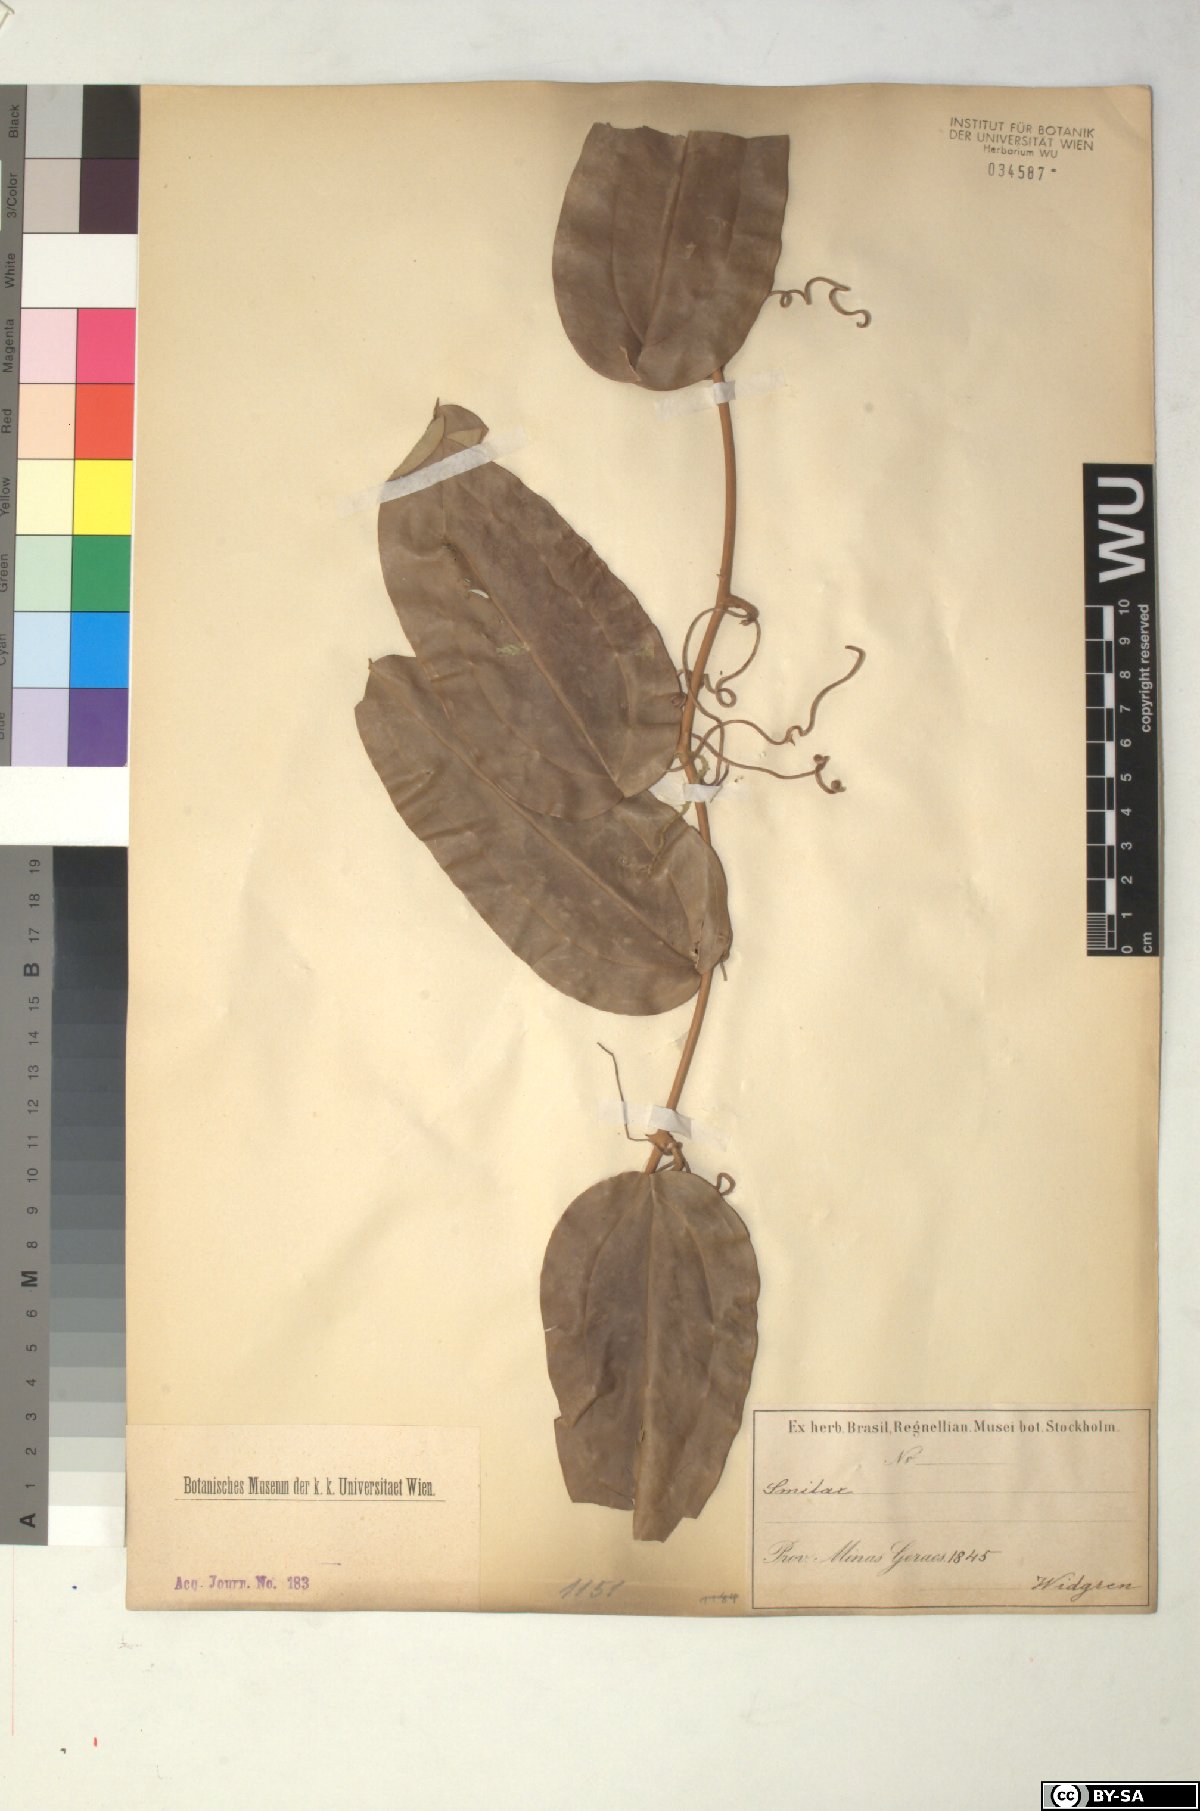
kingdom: Plantae
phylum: Tracheophyta
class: Liliopsida
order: Liliales
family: Smilacaceae
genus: Smilax
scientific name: Smilax
